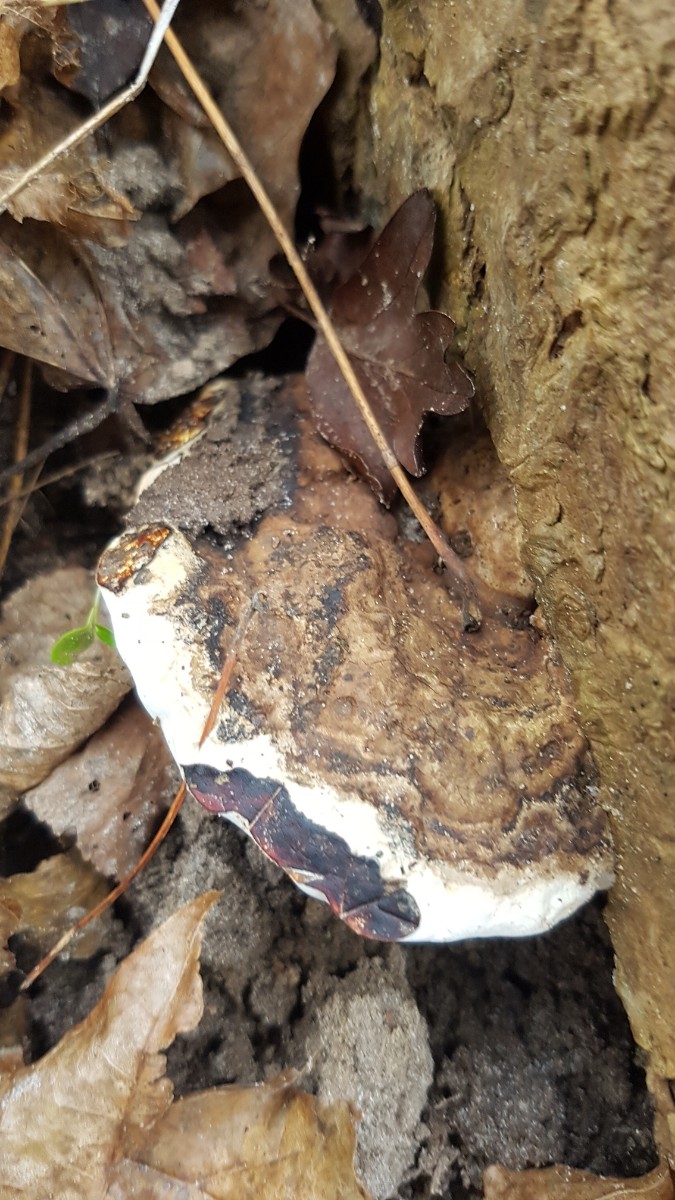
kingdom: Fungi
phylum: Basidiomycota
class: Agaricomycetes
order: Polyporales
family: Polyporaceae
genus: Ganoderma
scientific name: Ganoderma applanatum
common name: flad lakporesvamp
